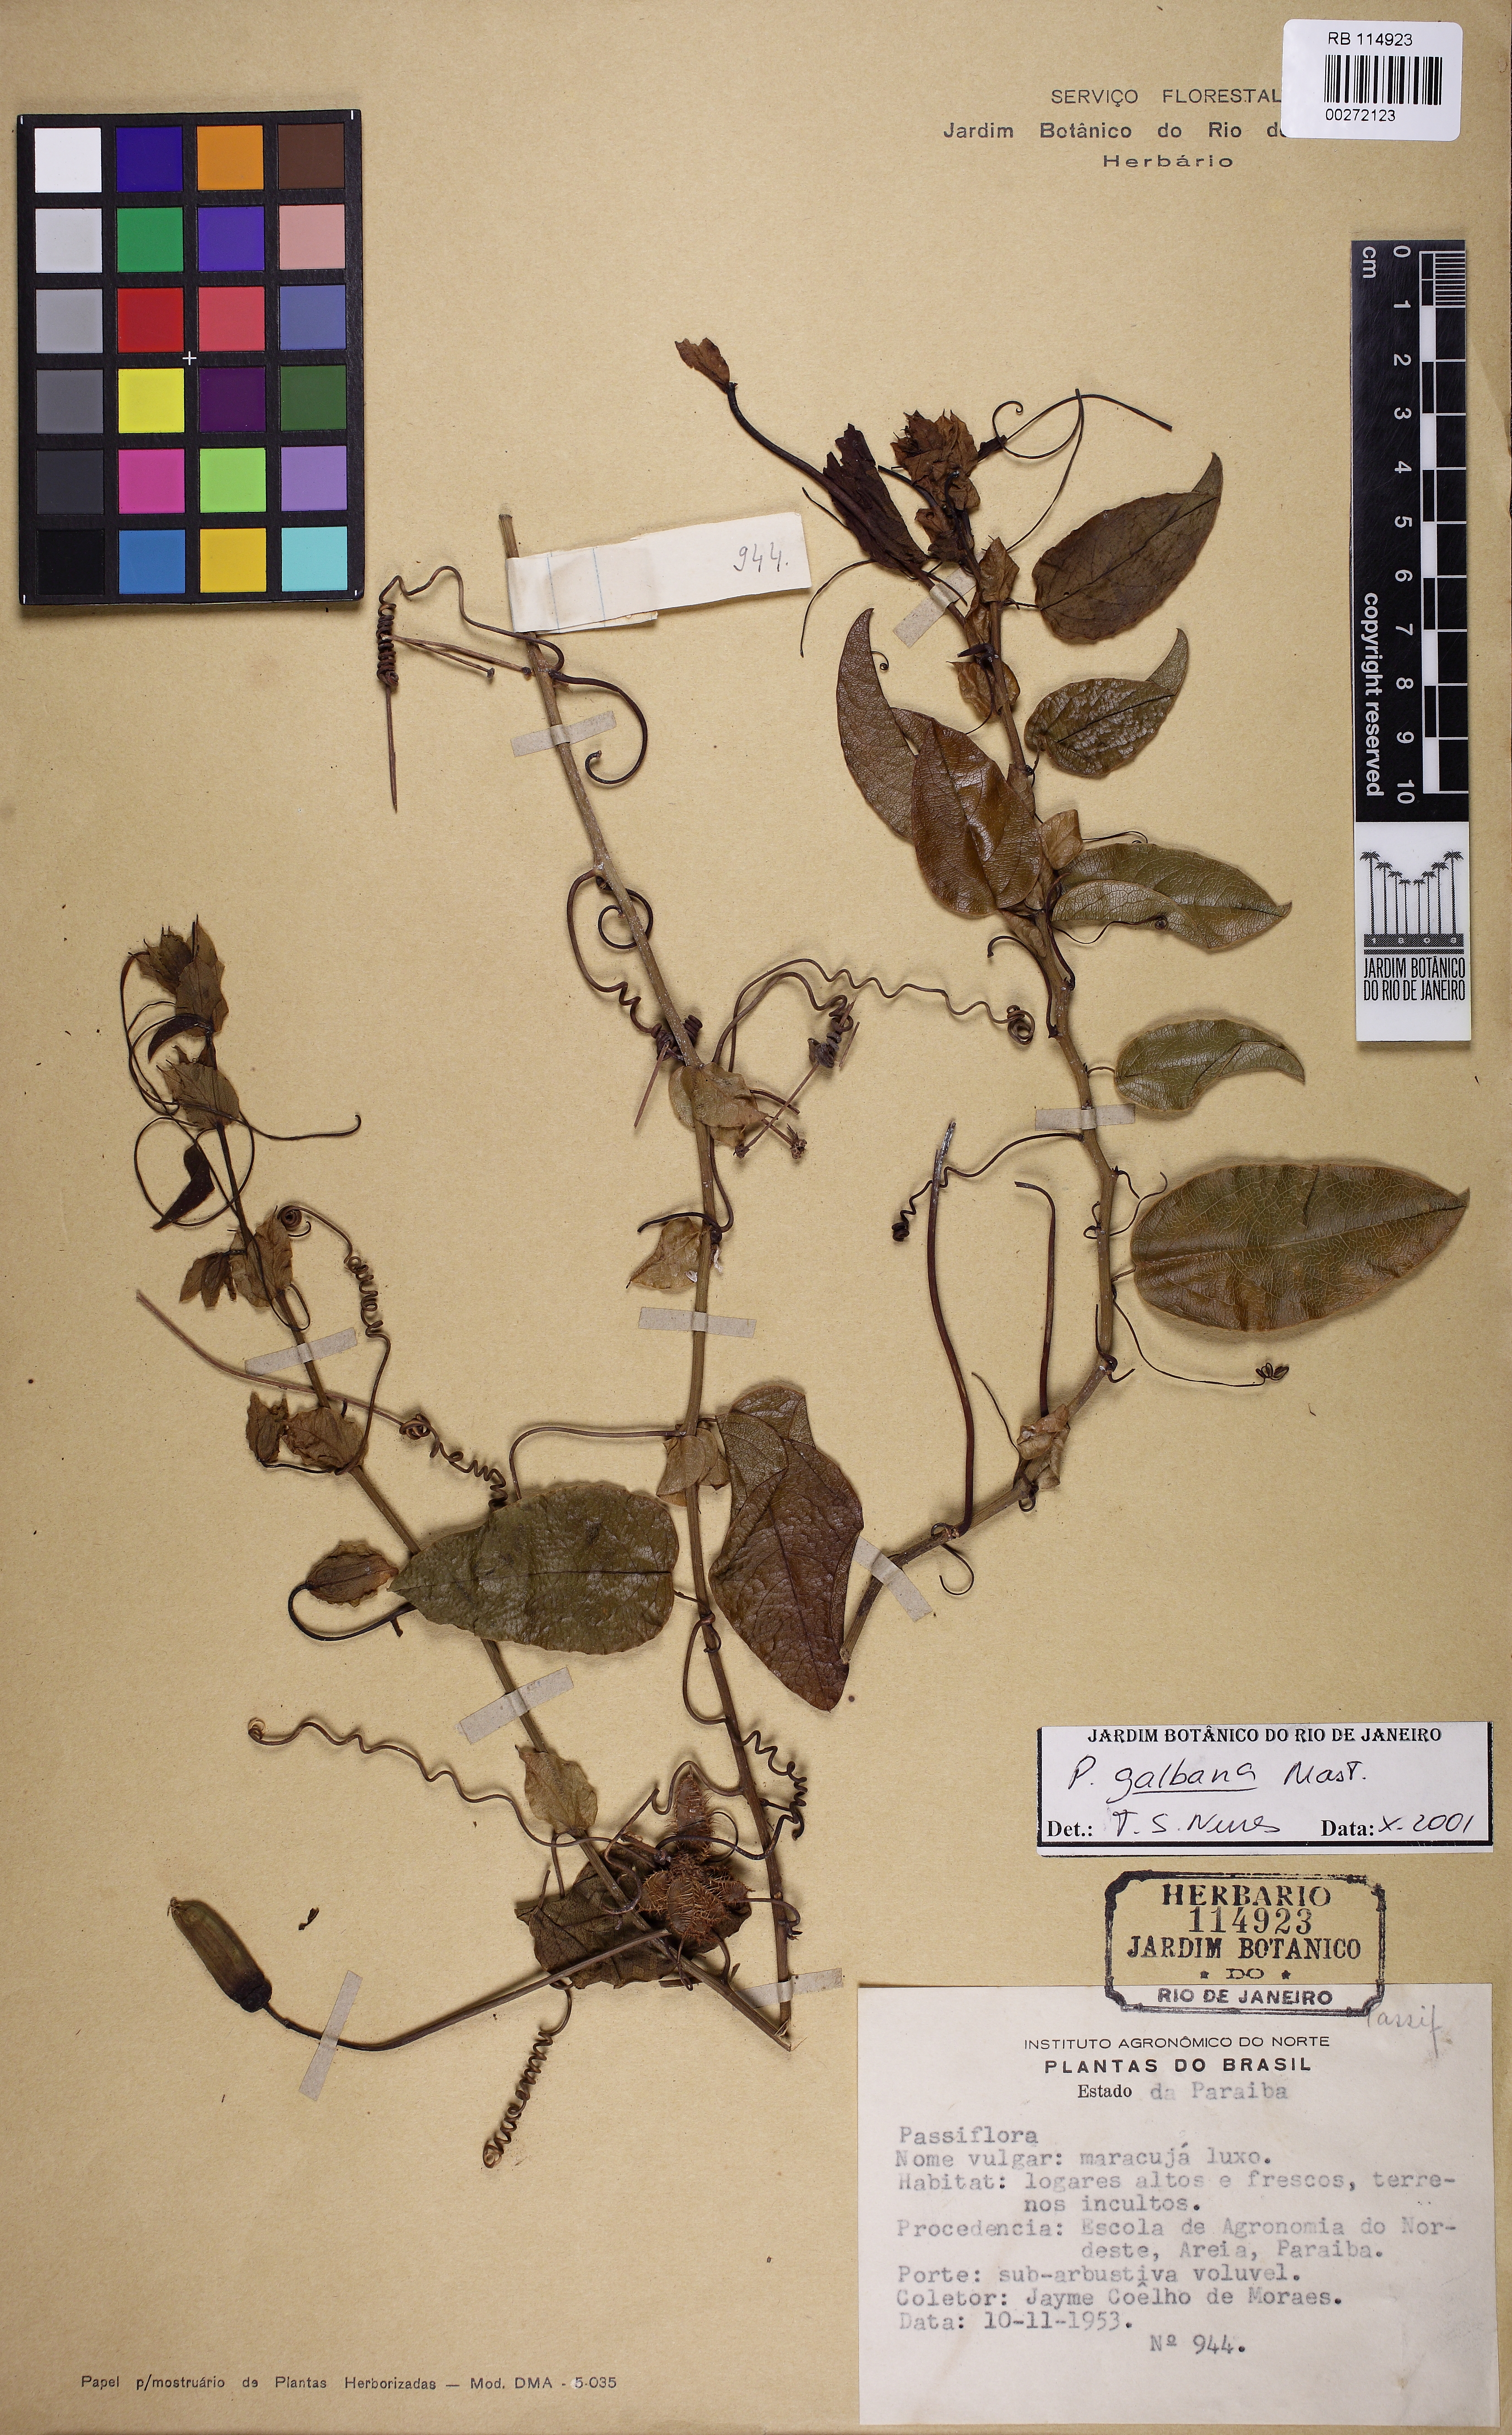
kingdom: Plantae
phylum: Tracheophyta
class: Magnoliopsida
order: Malpighiales
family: Passifloraceae
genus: Passiflora
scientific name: Passiflora silvestris
